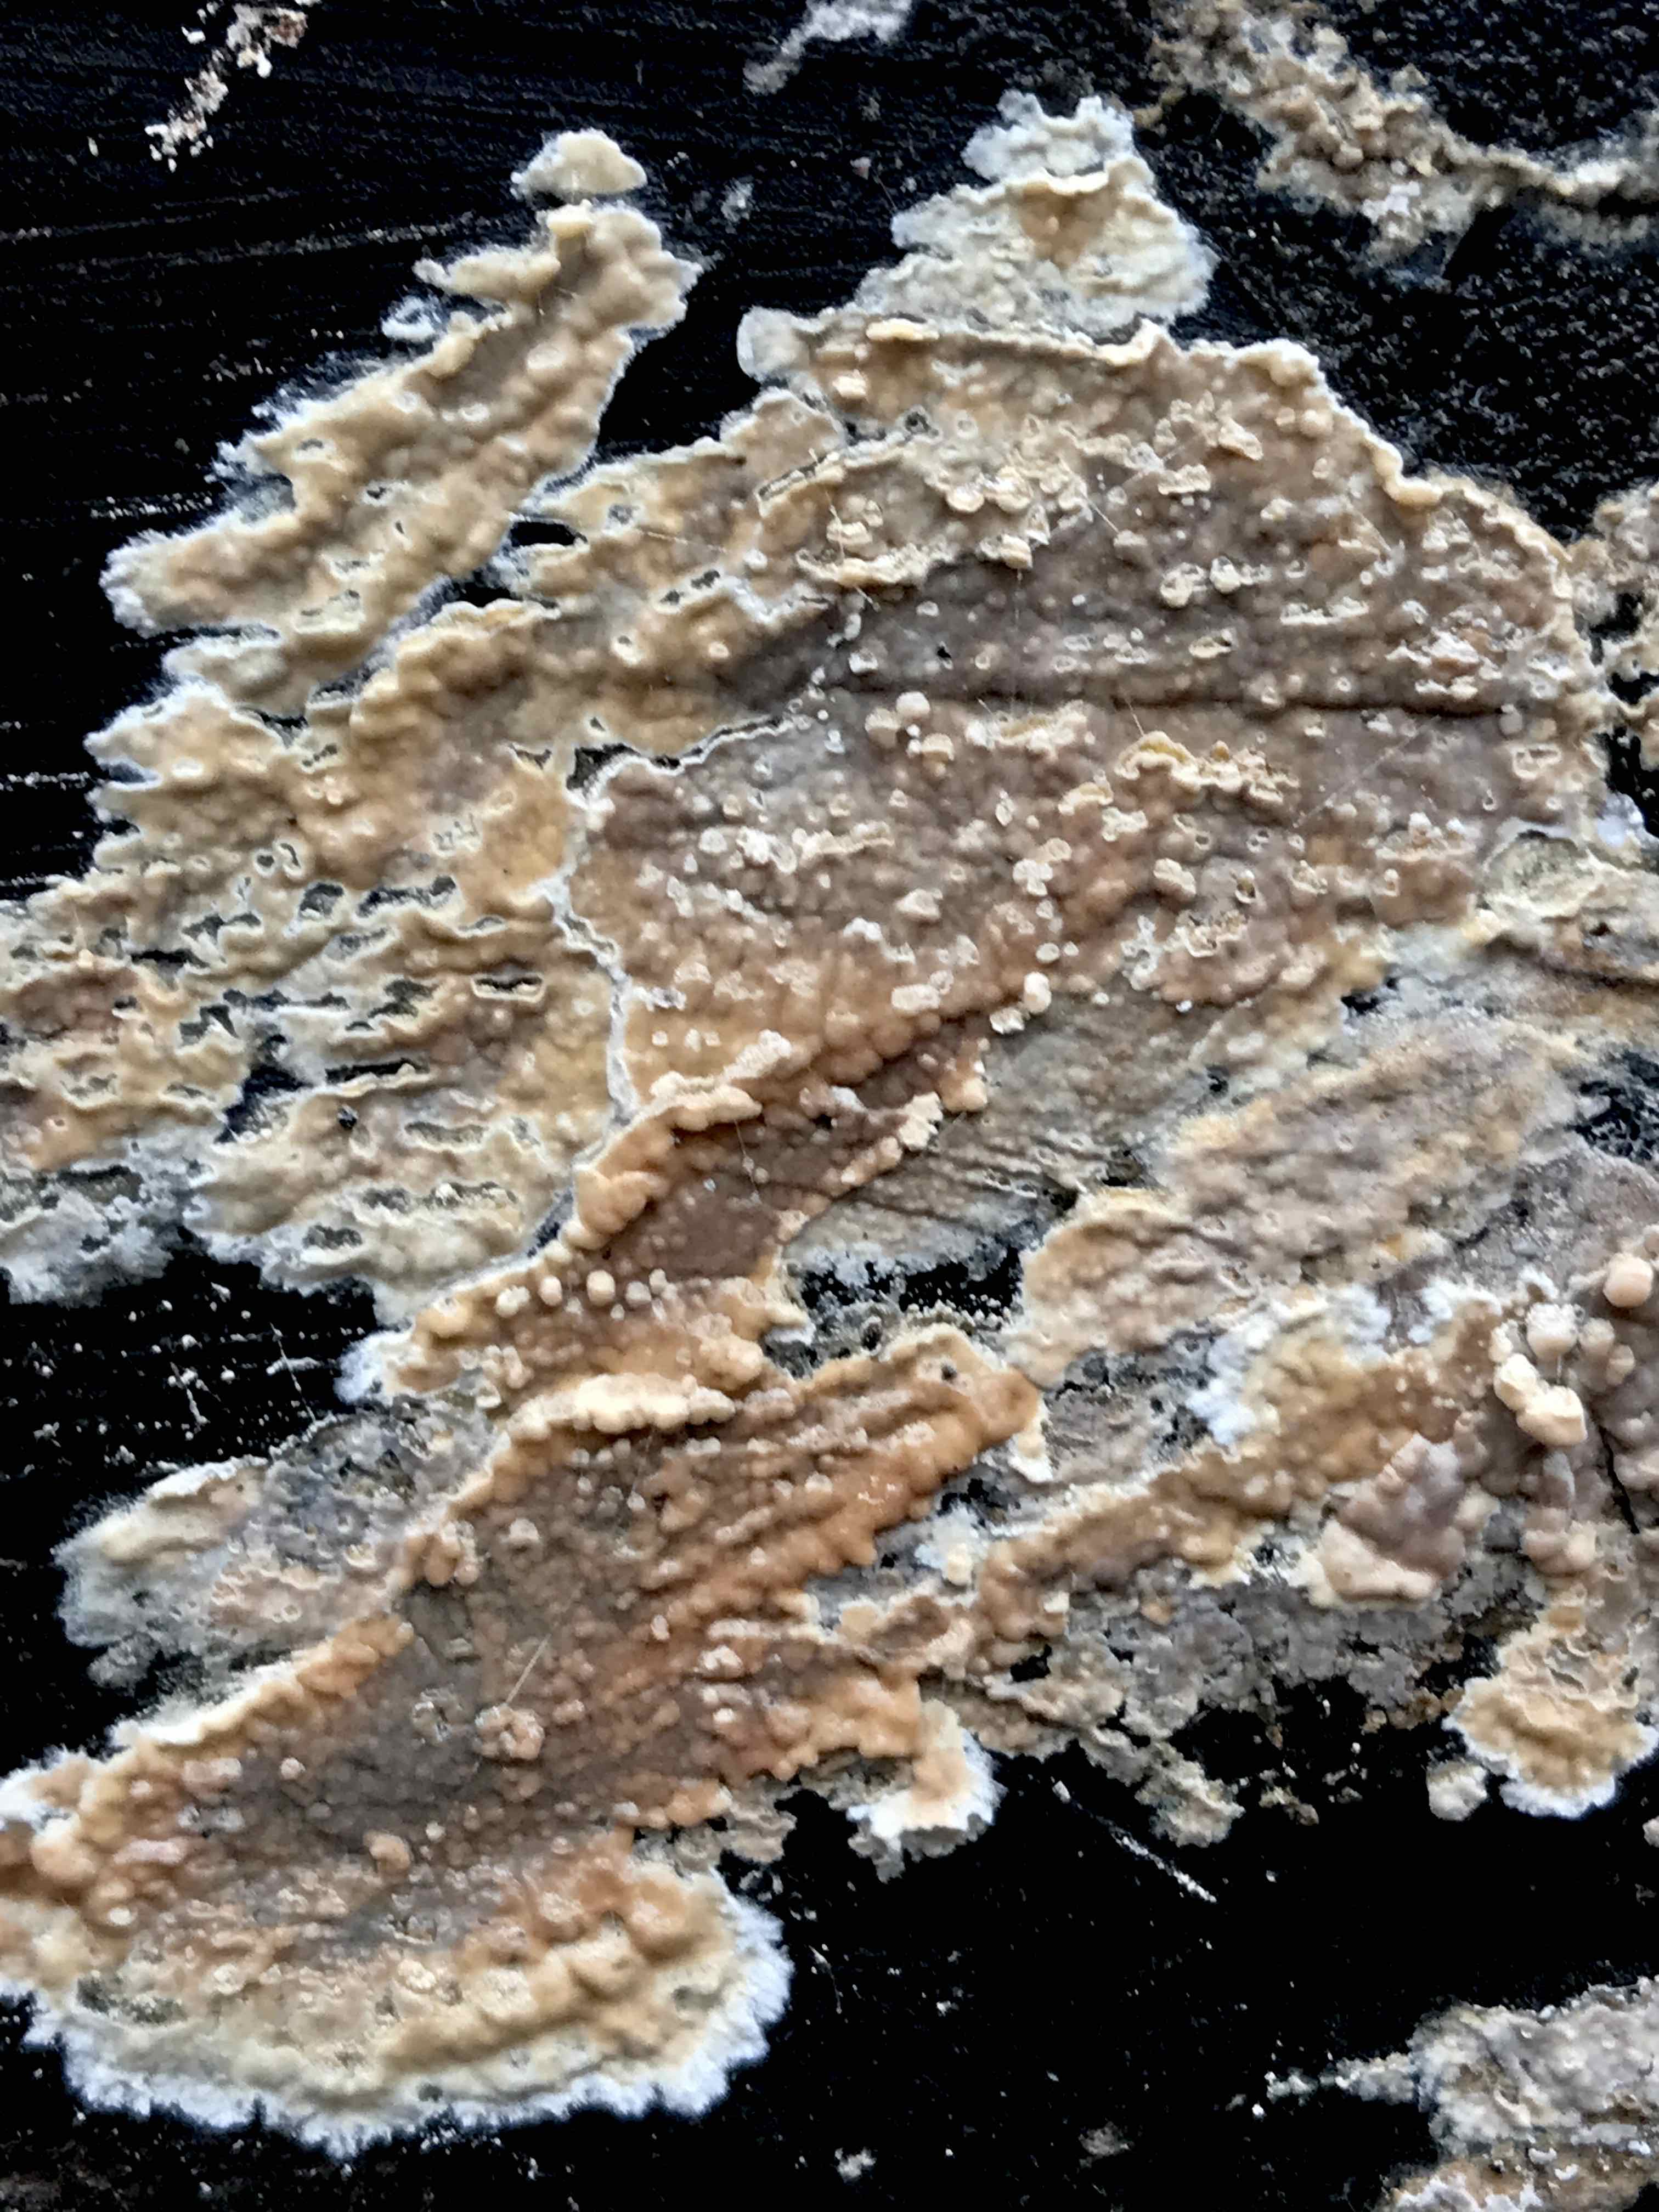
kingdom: Fungi
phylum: Basidiomycota
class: Agaricomycetes
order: Agaricales
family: Physalacriaceae
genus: Cylindrobasidium
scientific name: Cylindrobasidium evolvens
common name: sprækkehinde
